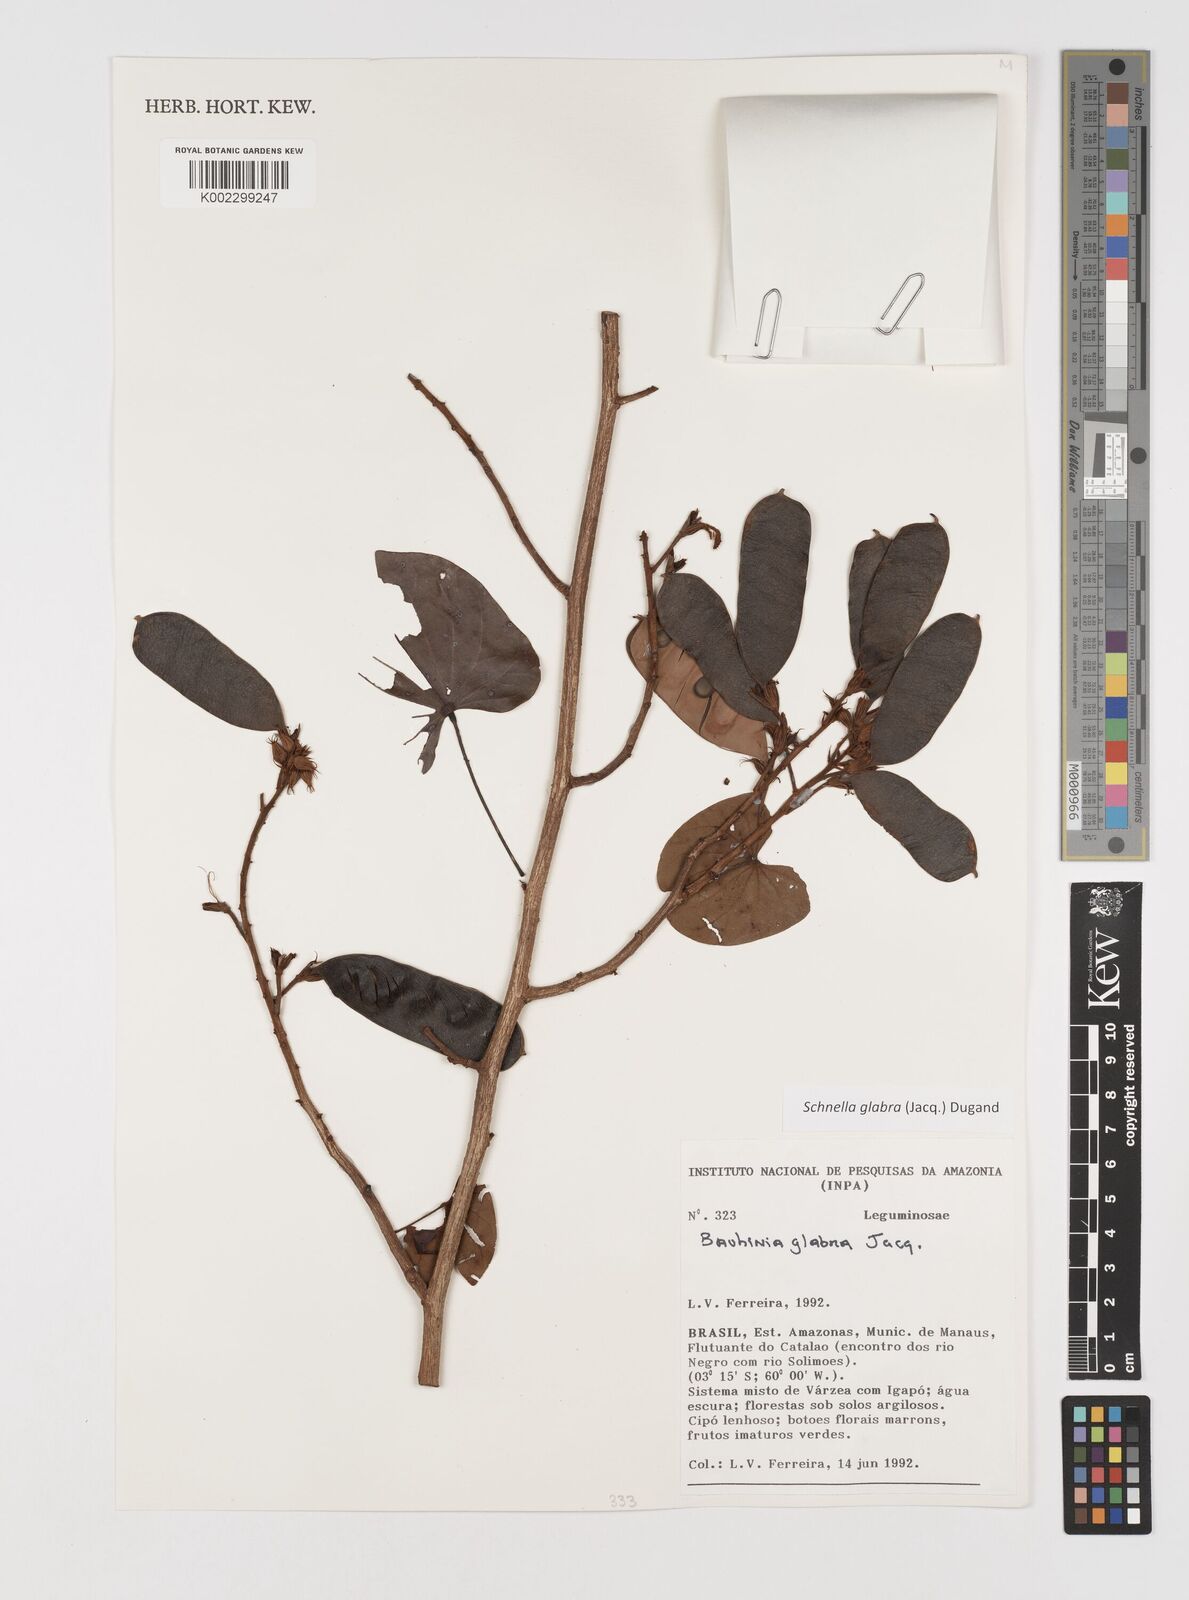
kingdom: Plantae
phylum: Tracheophyta
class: Magnoliopsida
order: Fabales
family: Fabaceae
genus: Schnella
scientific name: Schnella glabra
